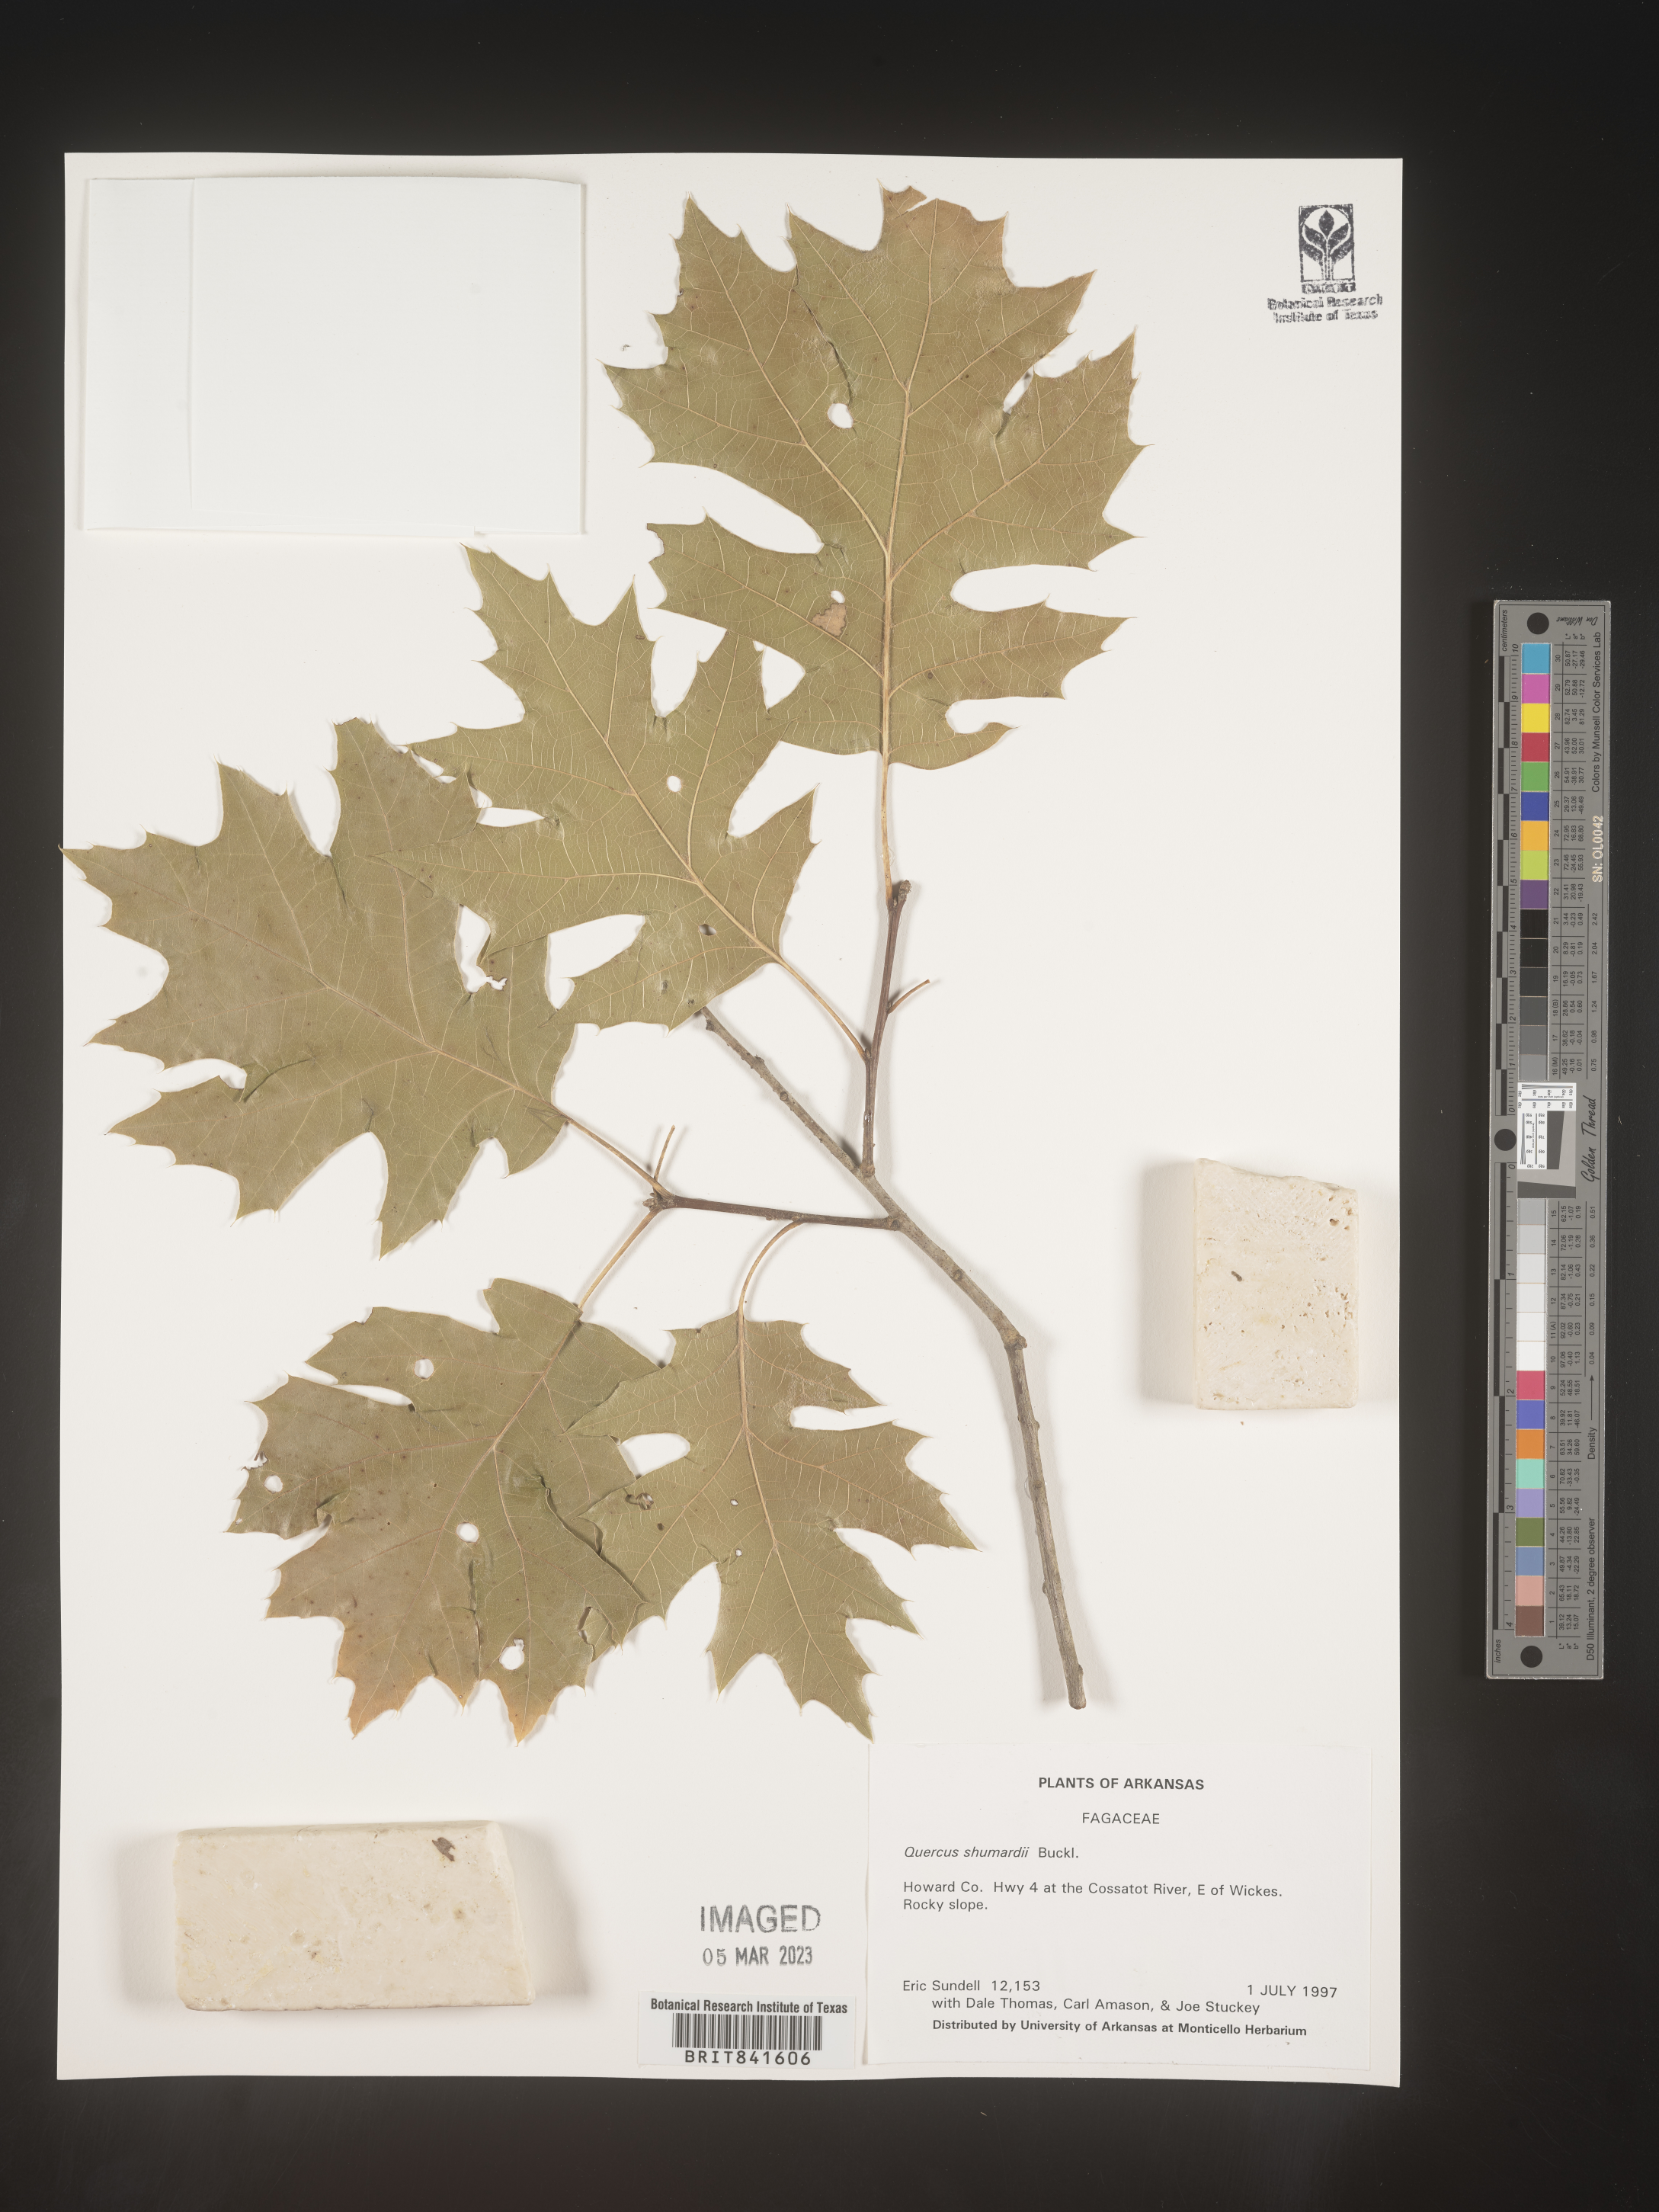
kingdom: Plantae
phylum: Tracheophyta
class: Magnoliopsida
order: Fagales
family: Fagaceae
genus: Quercus
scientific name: Quercus shumardii
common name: Shumard oak
